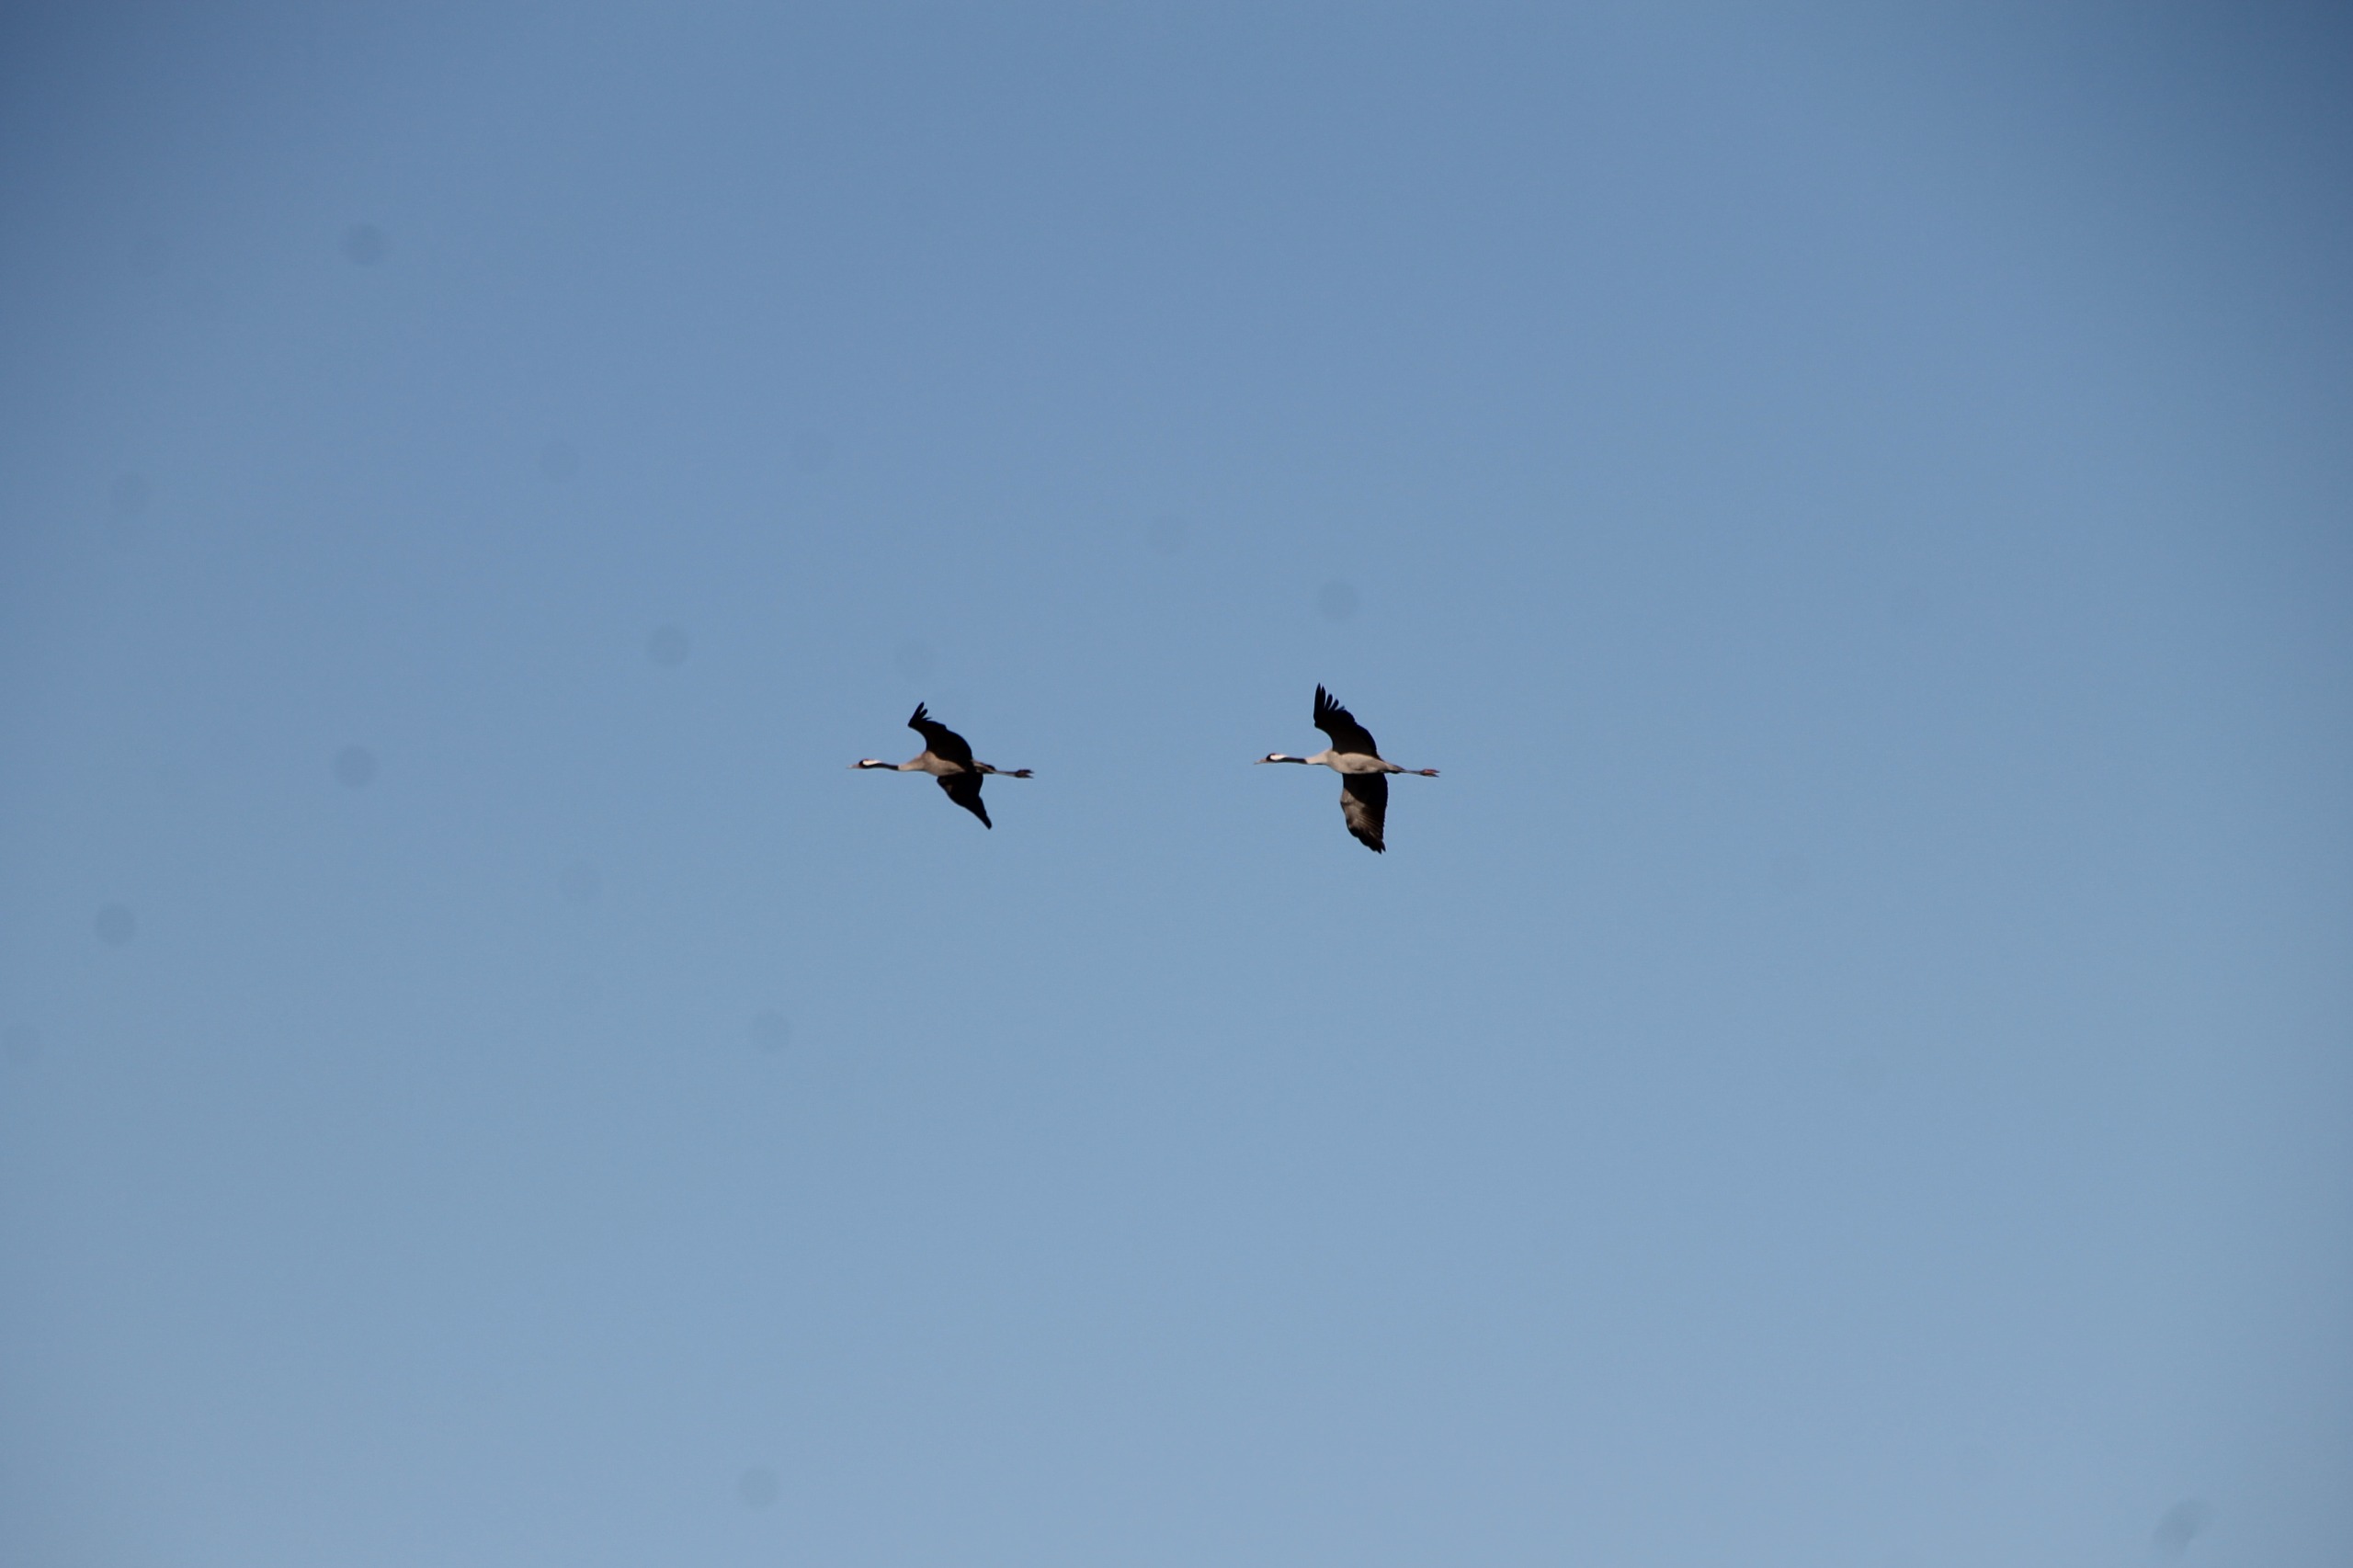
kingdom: Animalia
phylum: Chordata
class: Aves
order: Gruiformes
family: Gruidae
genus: Grus
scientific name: Grus grus
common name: Trane
